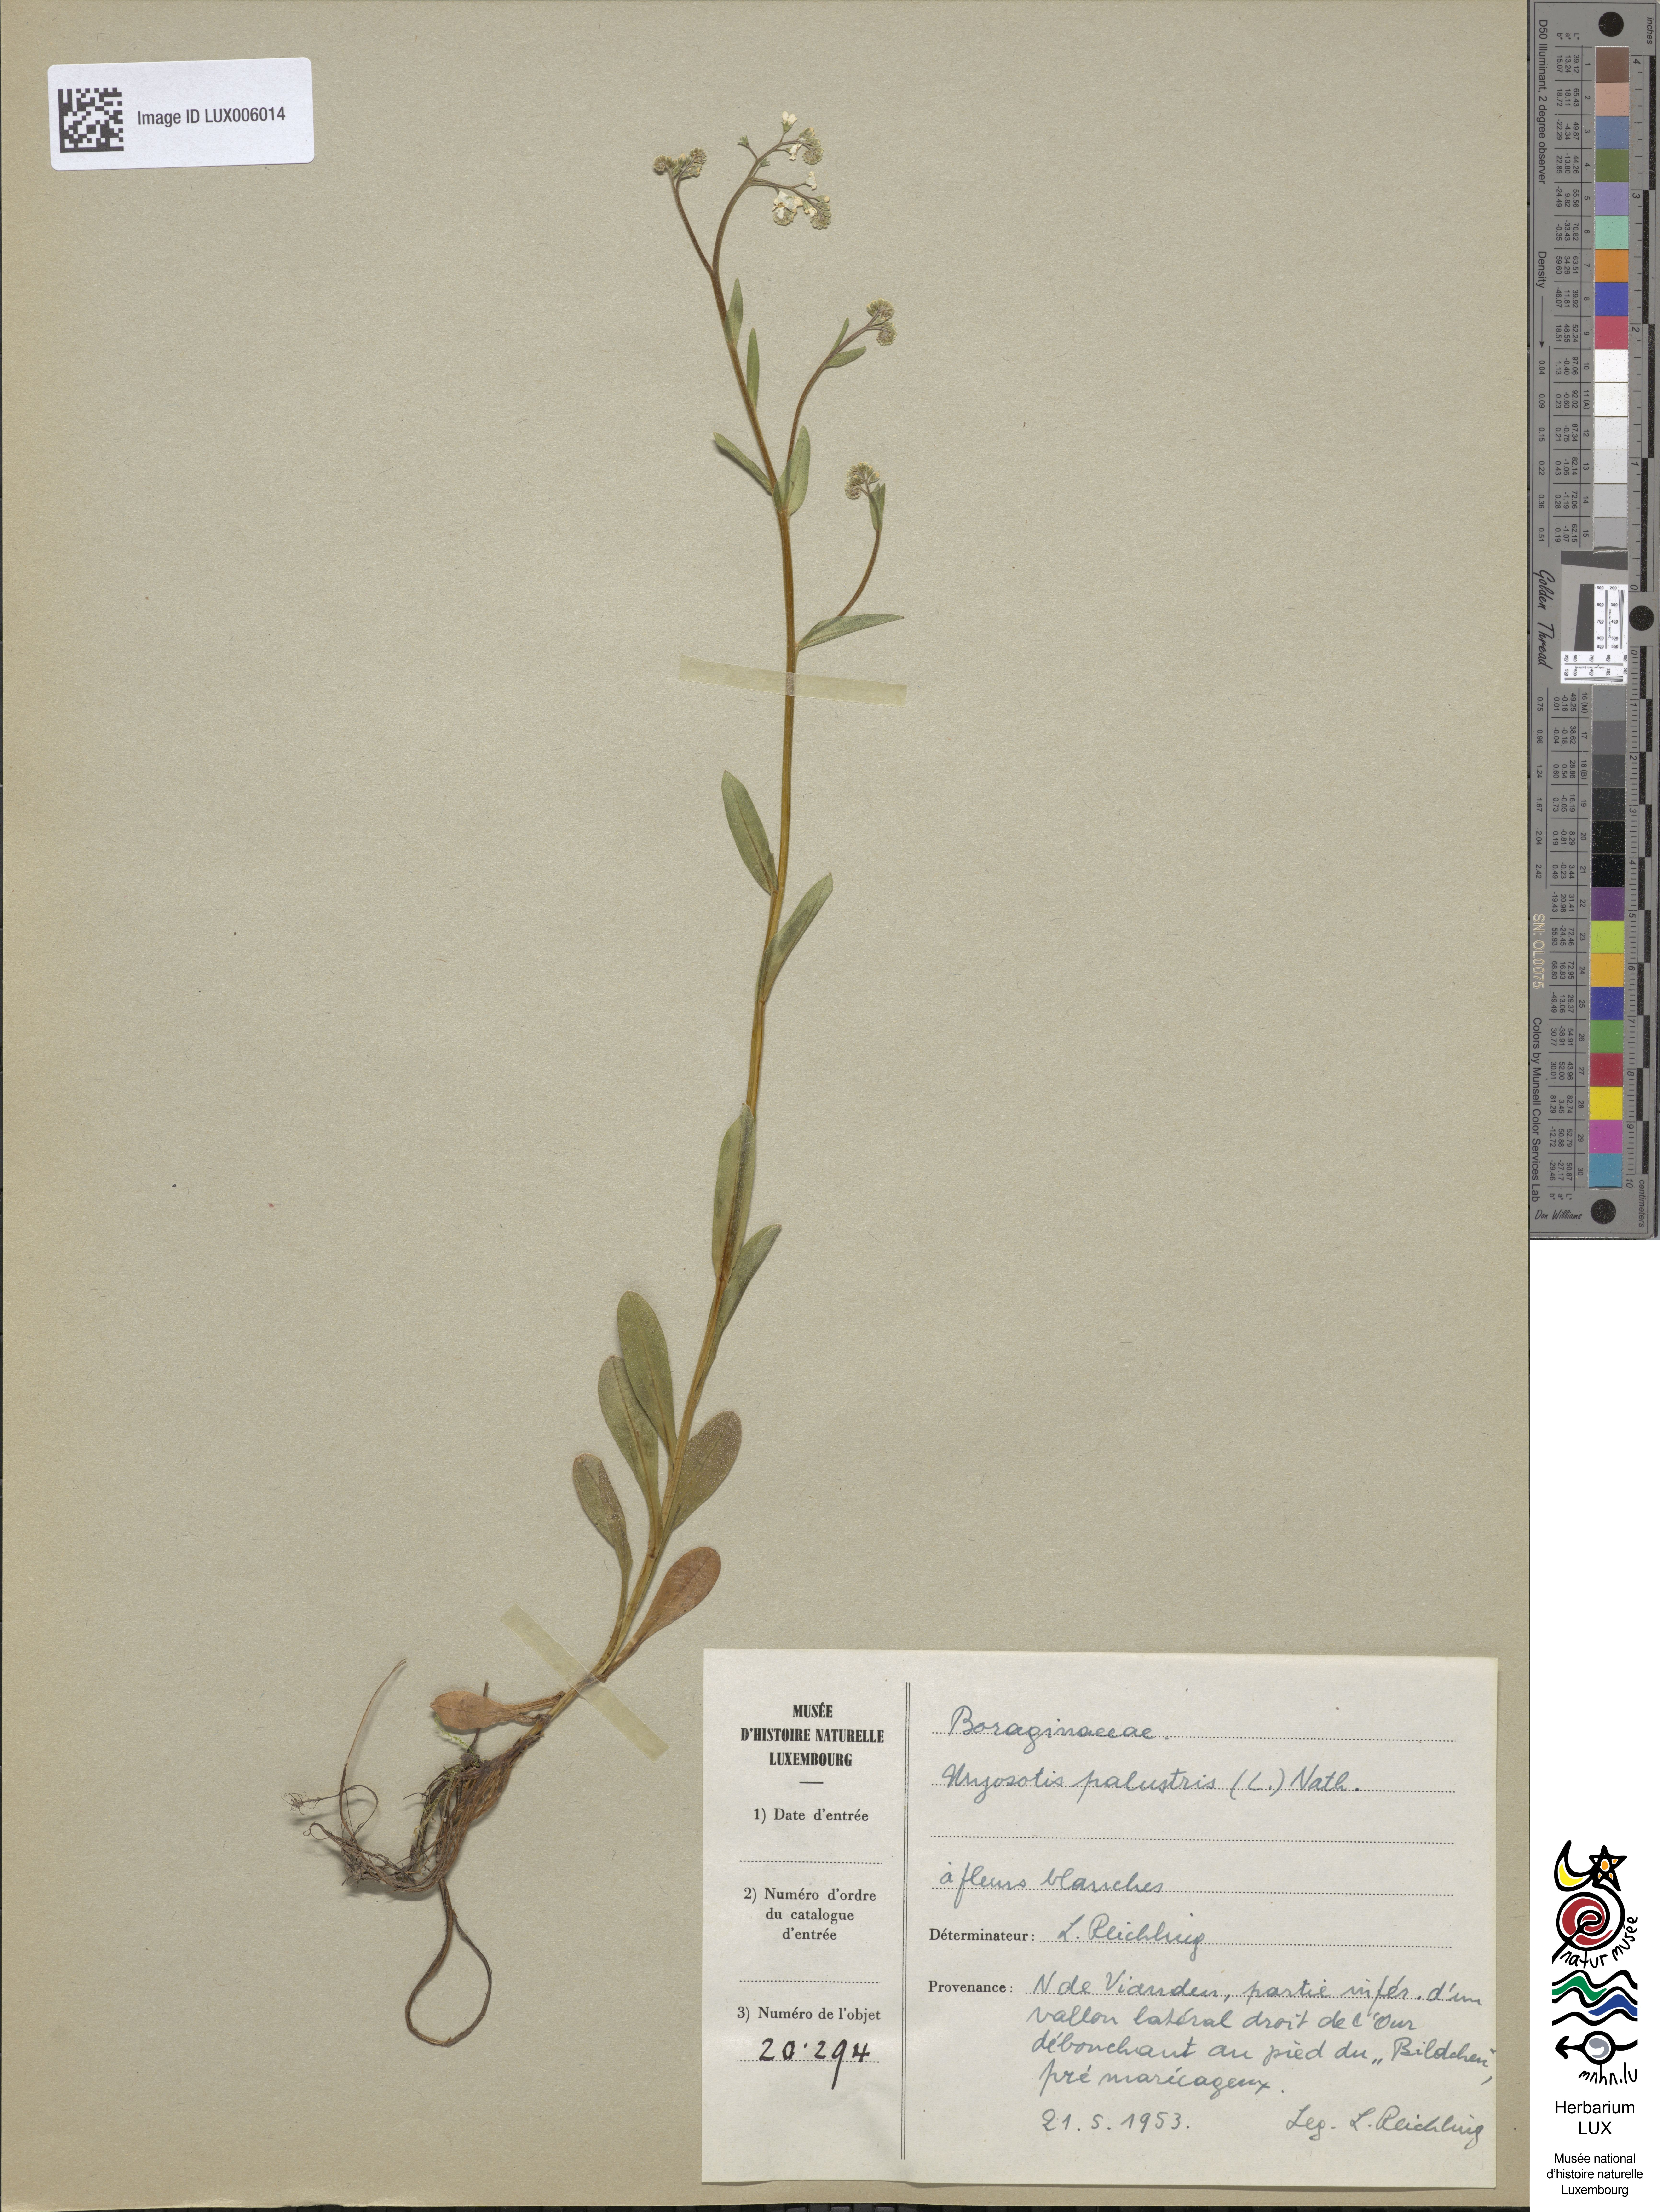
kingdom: Plantae
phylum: Tracheophyta
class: Magnoliopsida
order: Boraginales
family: Boraginaceae
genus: Myosotis
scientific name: Myosotis scorpioides
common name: Water forget-me-not
